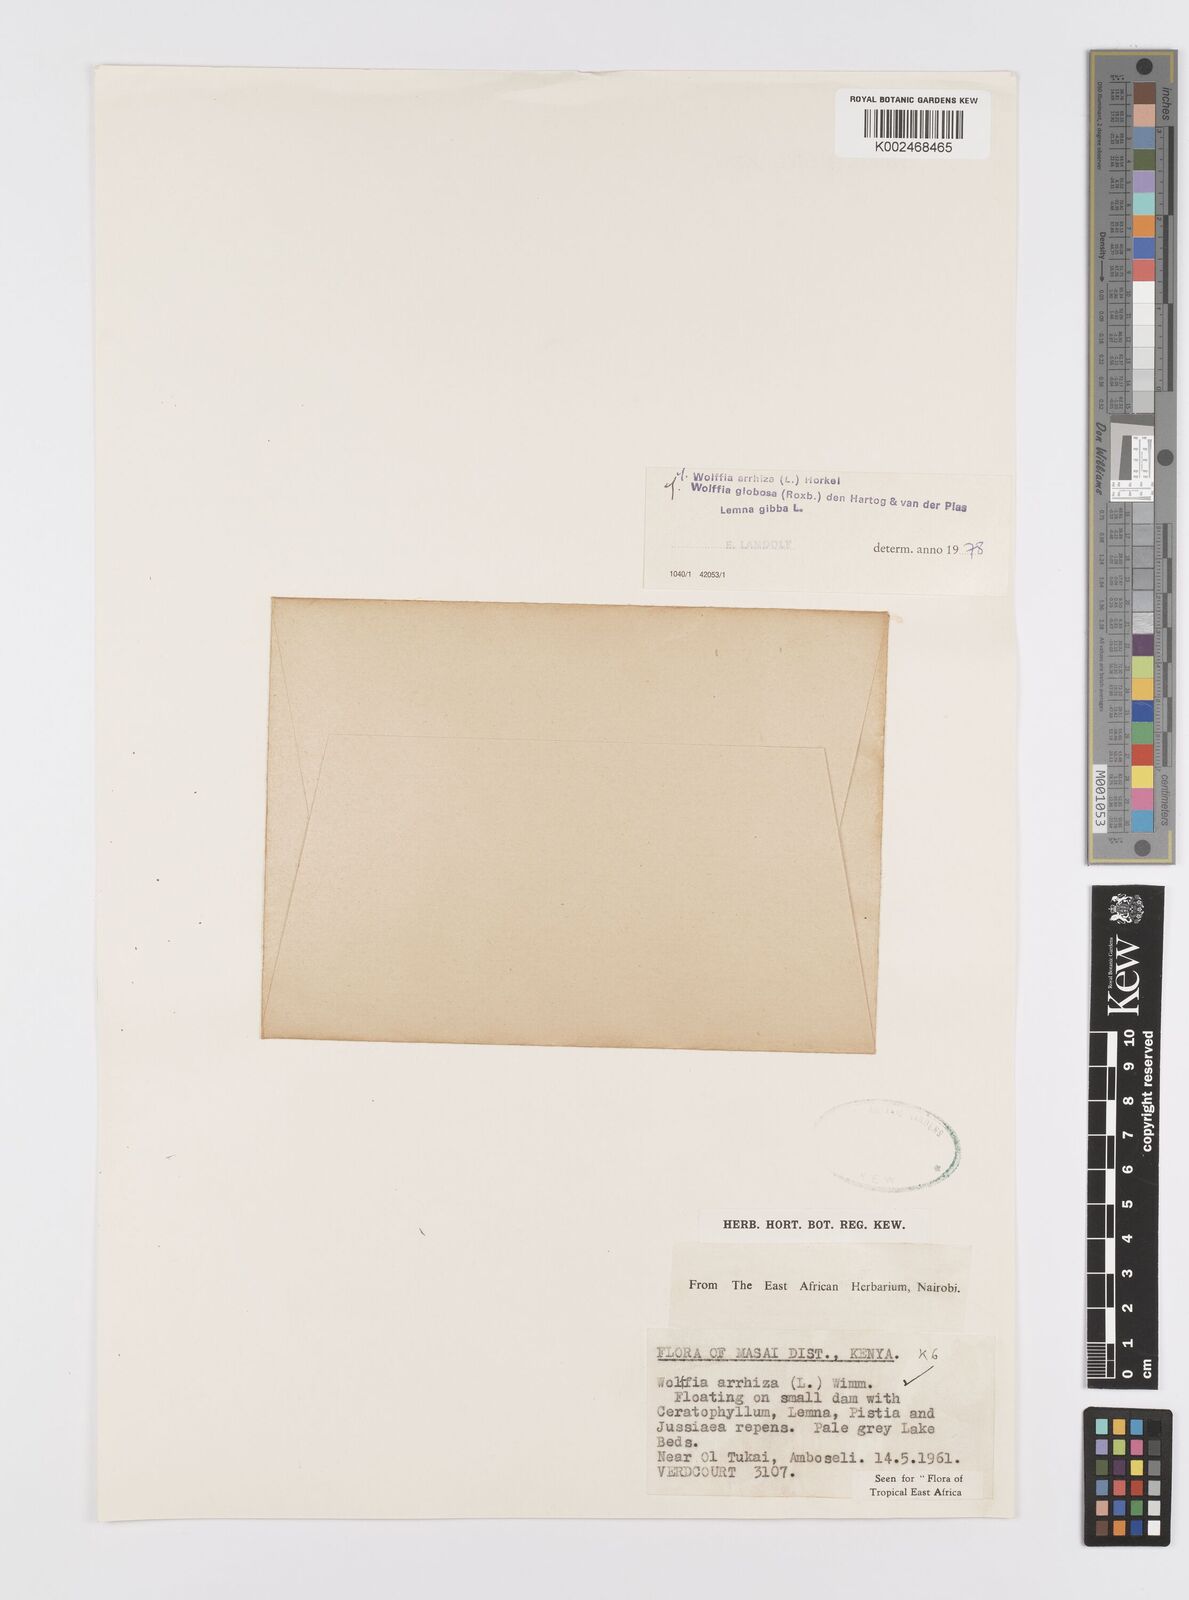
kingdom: Plantae
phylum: Tracheophyta
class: Liliopsida
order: Alismatales
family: Araceae
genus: Wolffia
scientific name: Wolffia arrhiza
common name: Rootless duckweed
